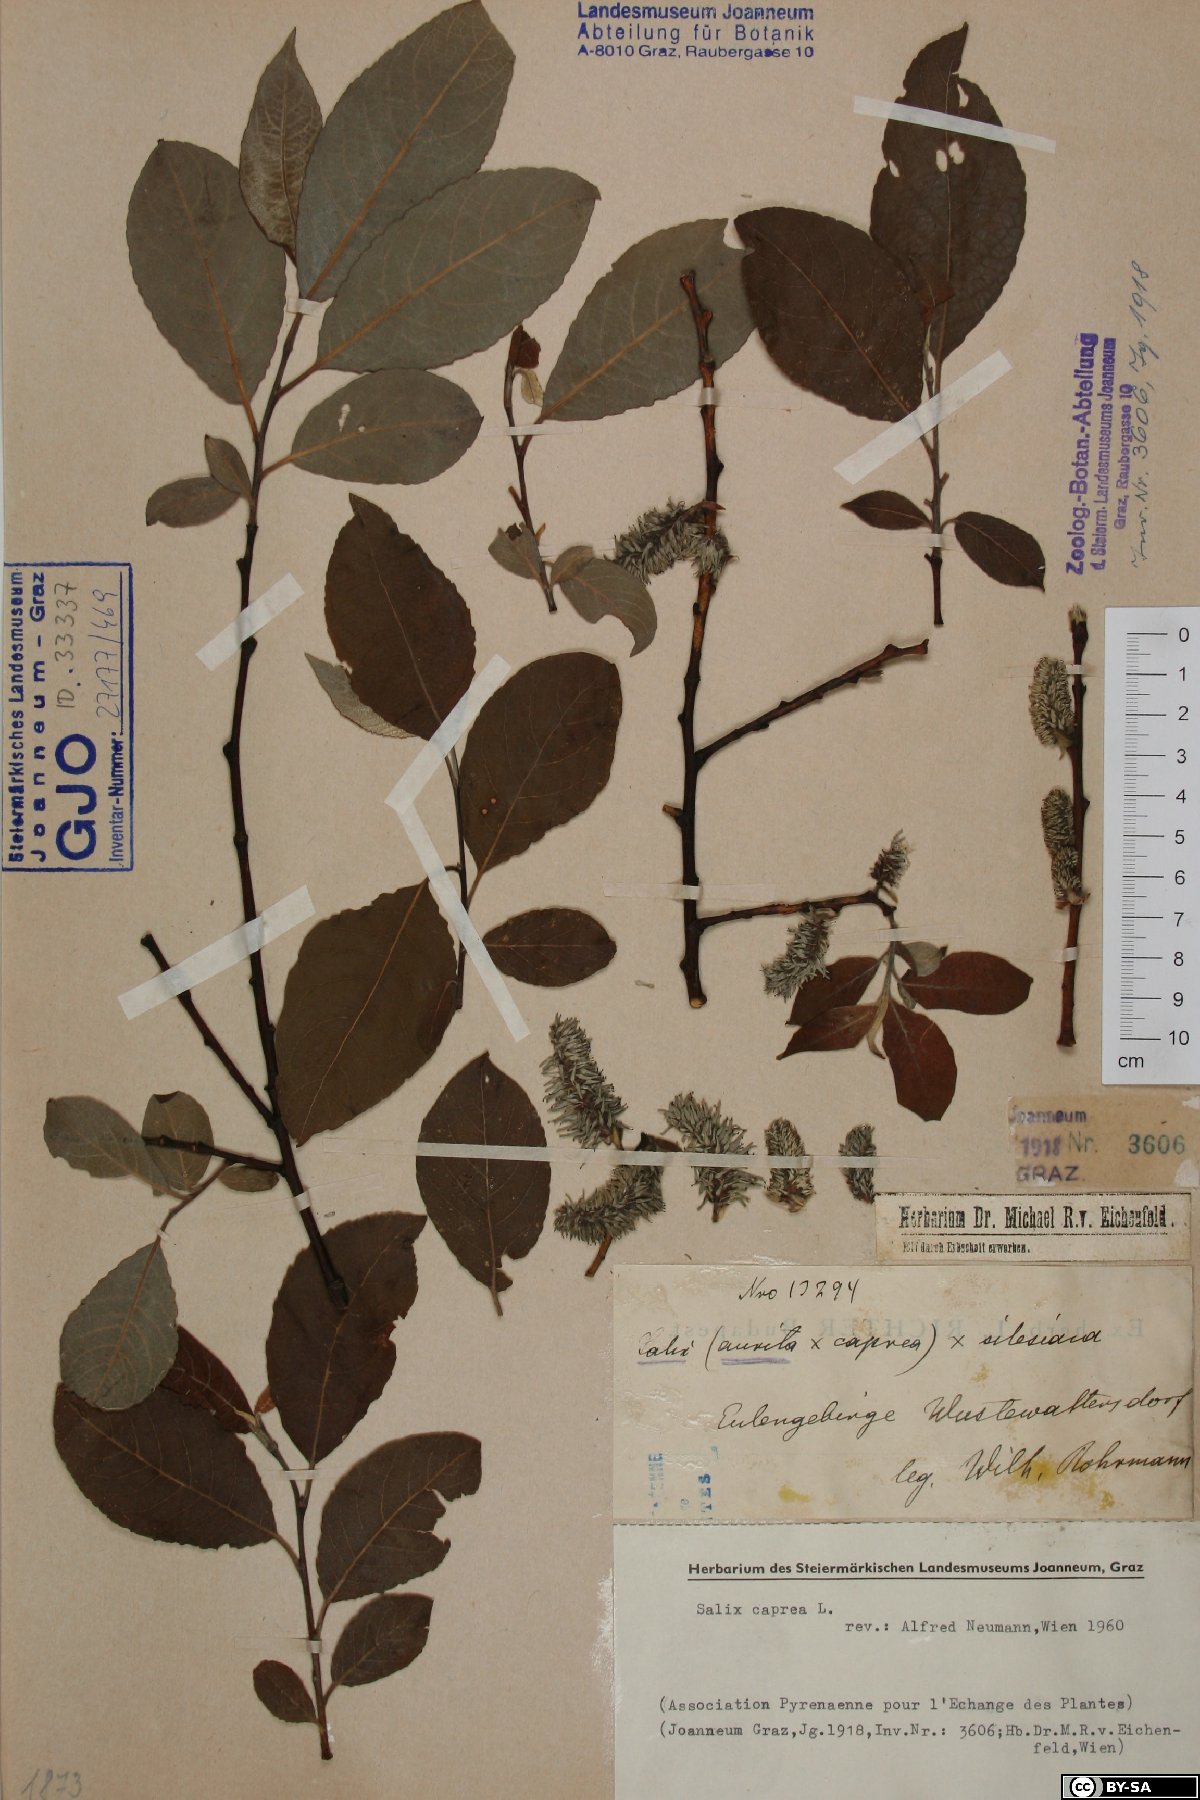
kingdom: Plantae
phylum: Tracheophyta
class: Magnoliopsida
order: Malpighiales
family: Salicaceae
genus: Salix
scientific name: Salix caprea
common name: Goat willow
